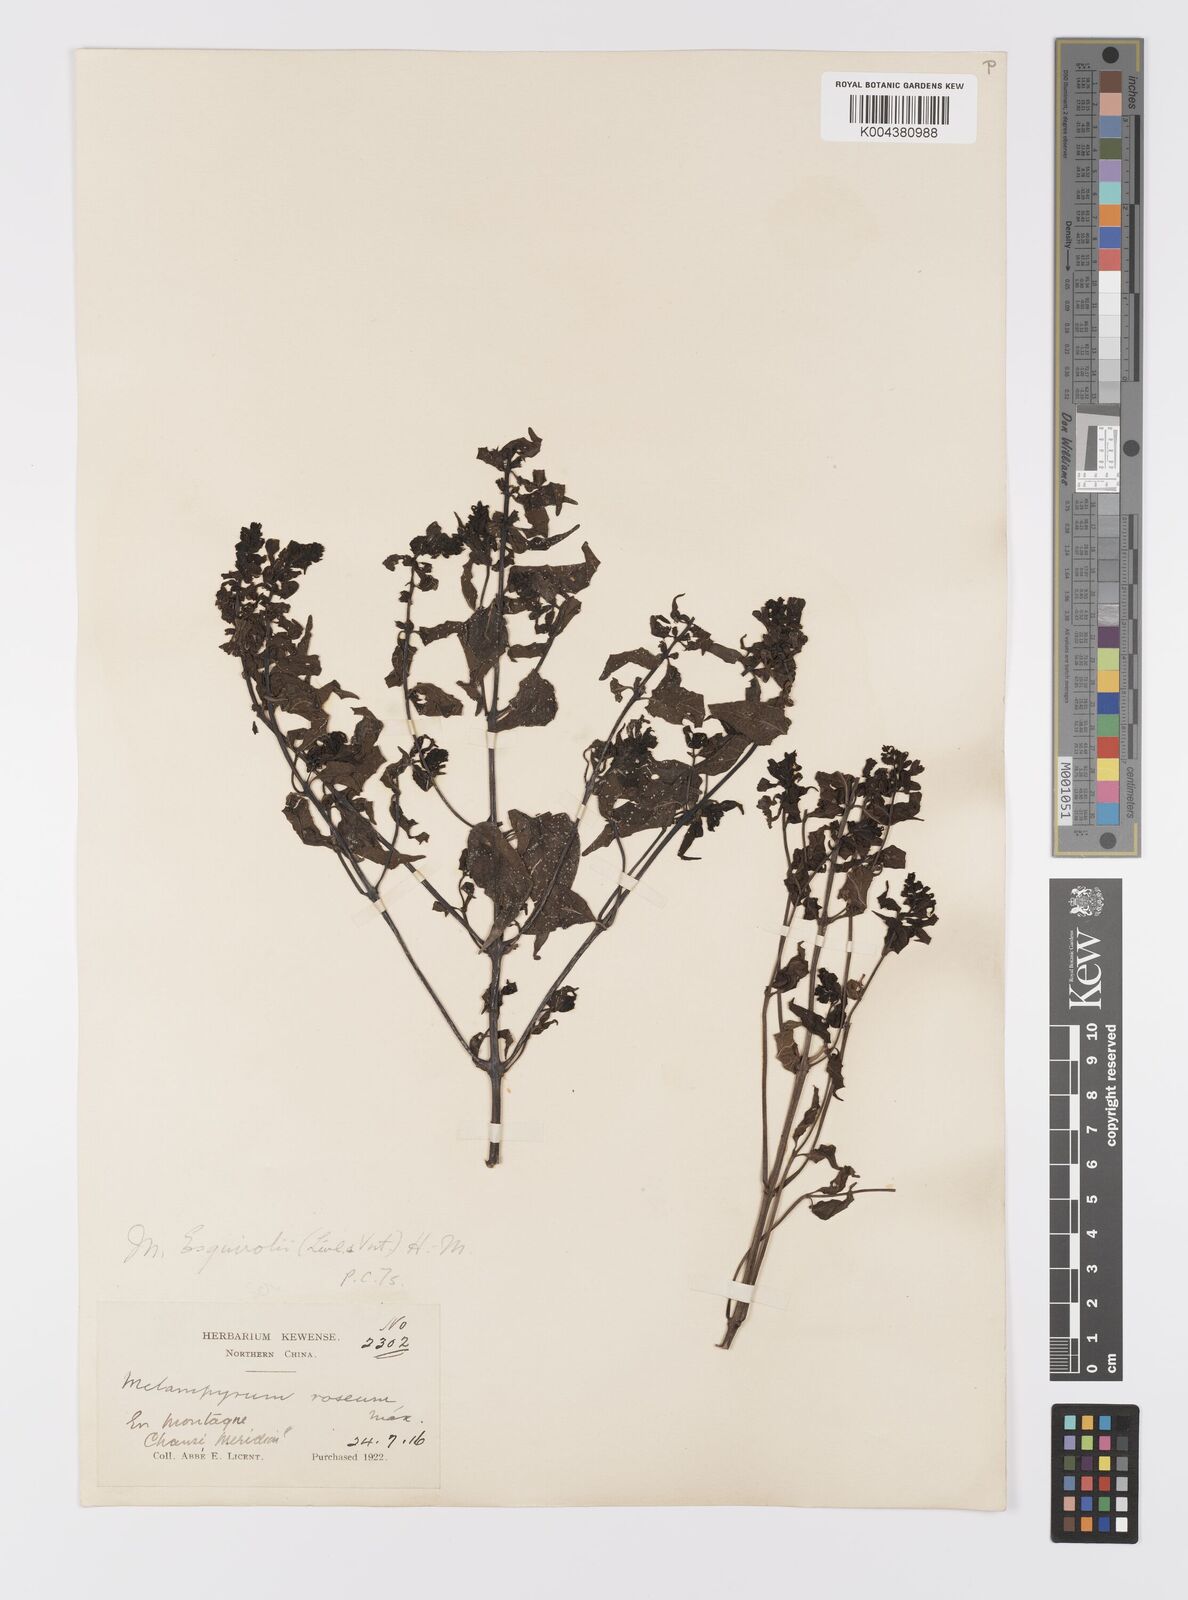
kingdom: Plantae
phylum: Tracheophyta
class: Magnoliopsida
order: Lamiales
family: Orobanchaceae
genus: Melampyrum
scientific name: Melampyrum roseum
